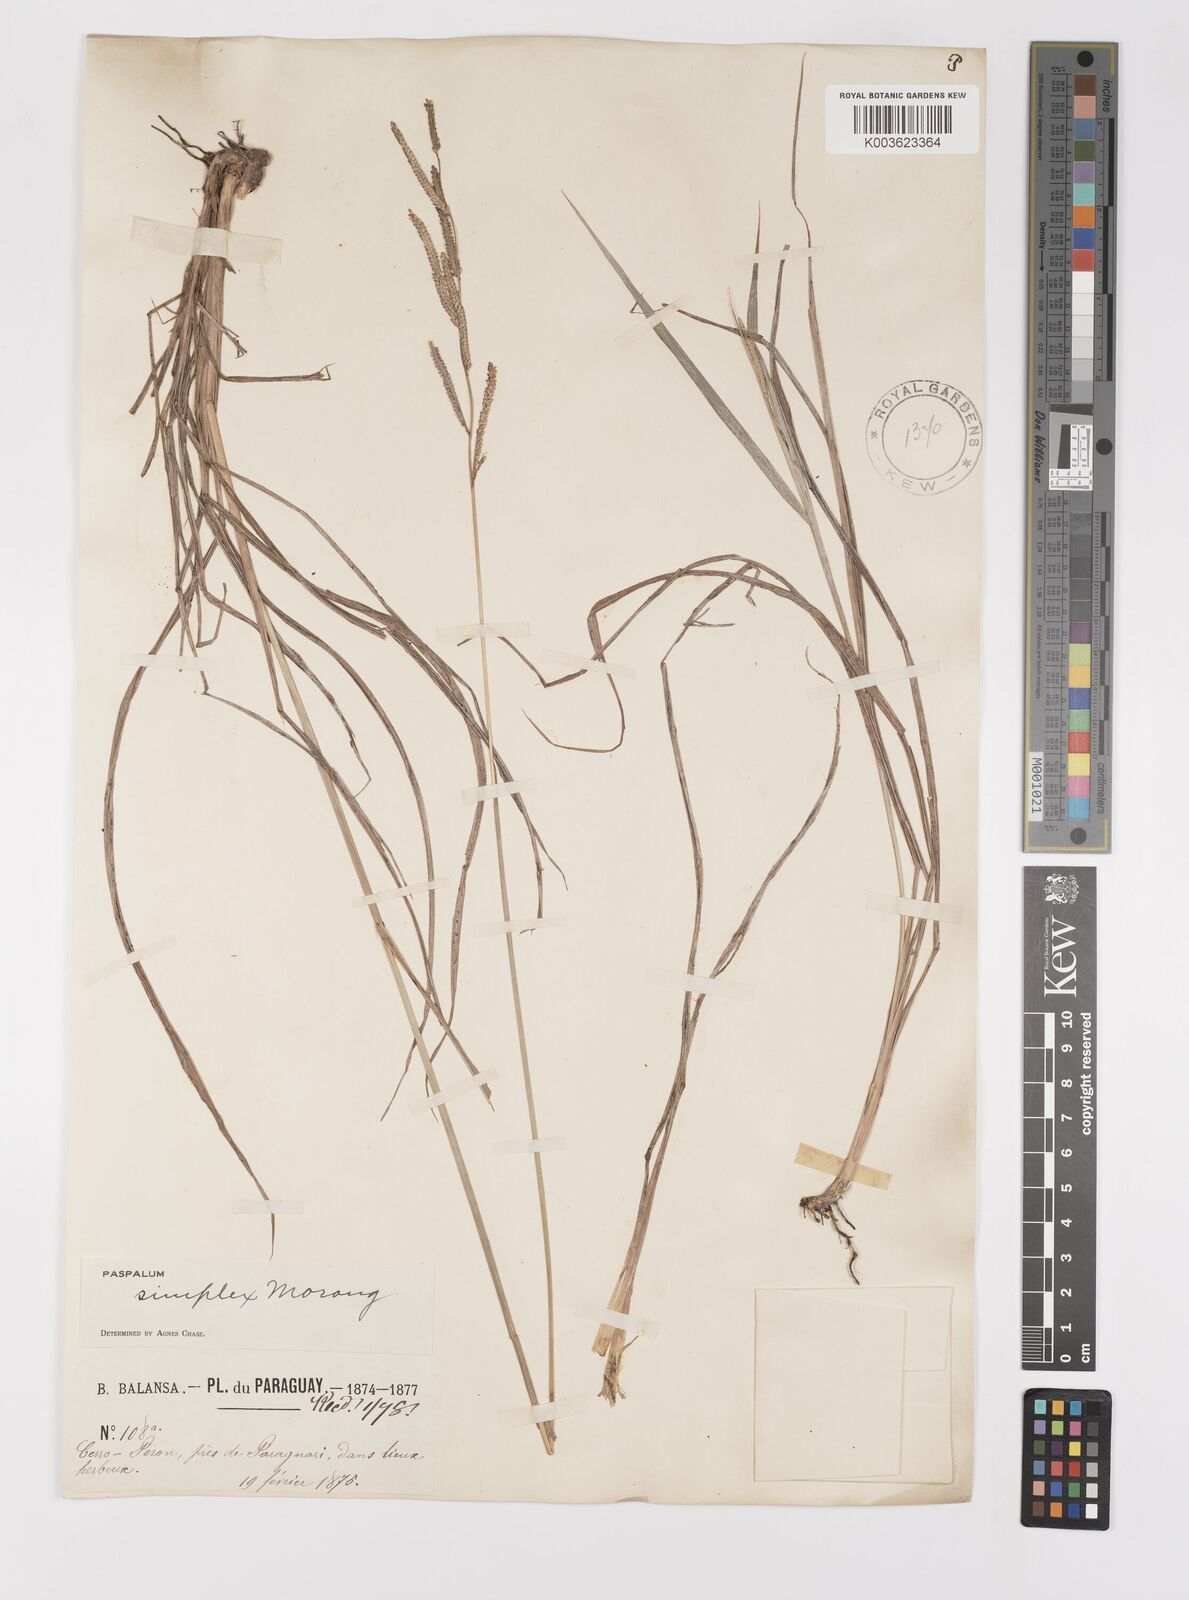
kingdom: Plantae
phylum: Tracheophyta
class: Liliopsida
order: Poales
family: Poaceae
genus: Paspalum
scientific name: Paspalum simplex
